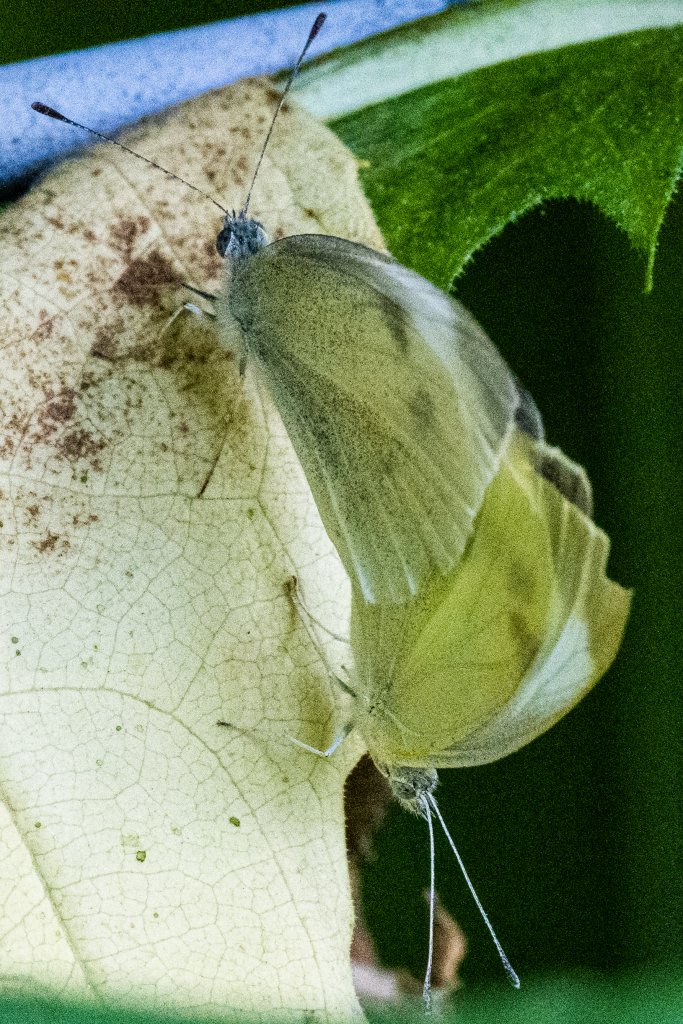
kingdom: Animalia
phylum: Arthropoda
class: Insecta
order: Lepidoptera
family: Pieridae
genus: Pieris
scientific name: Pieris rapae
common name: Cabbage White
